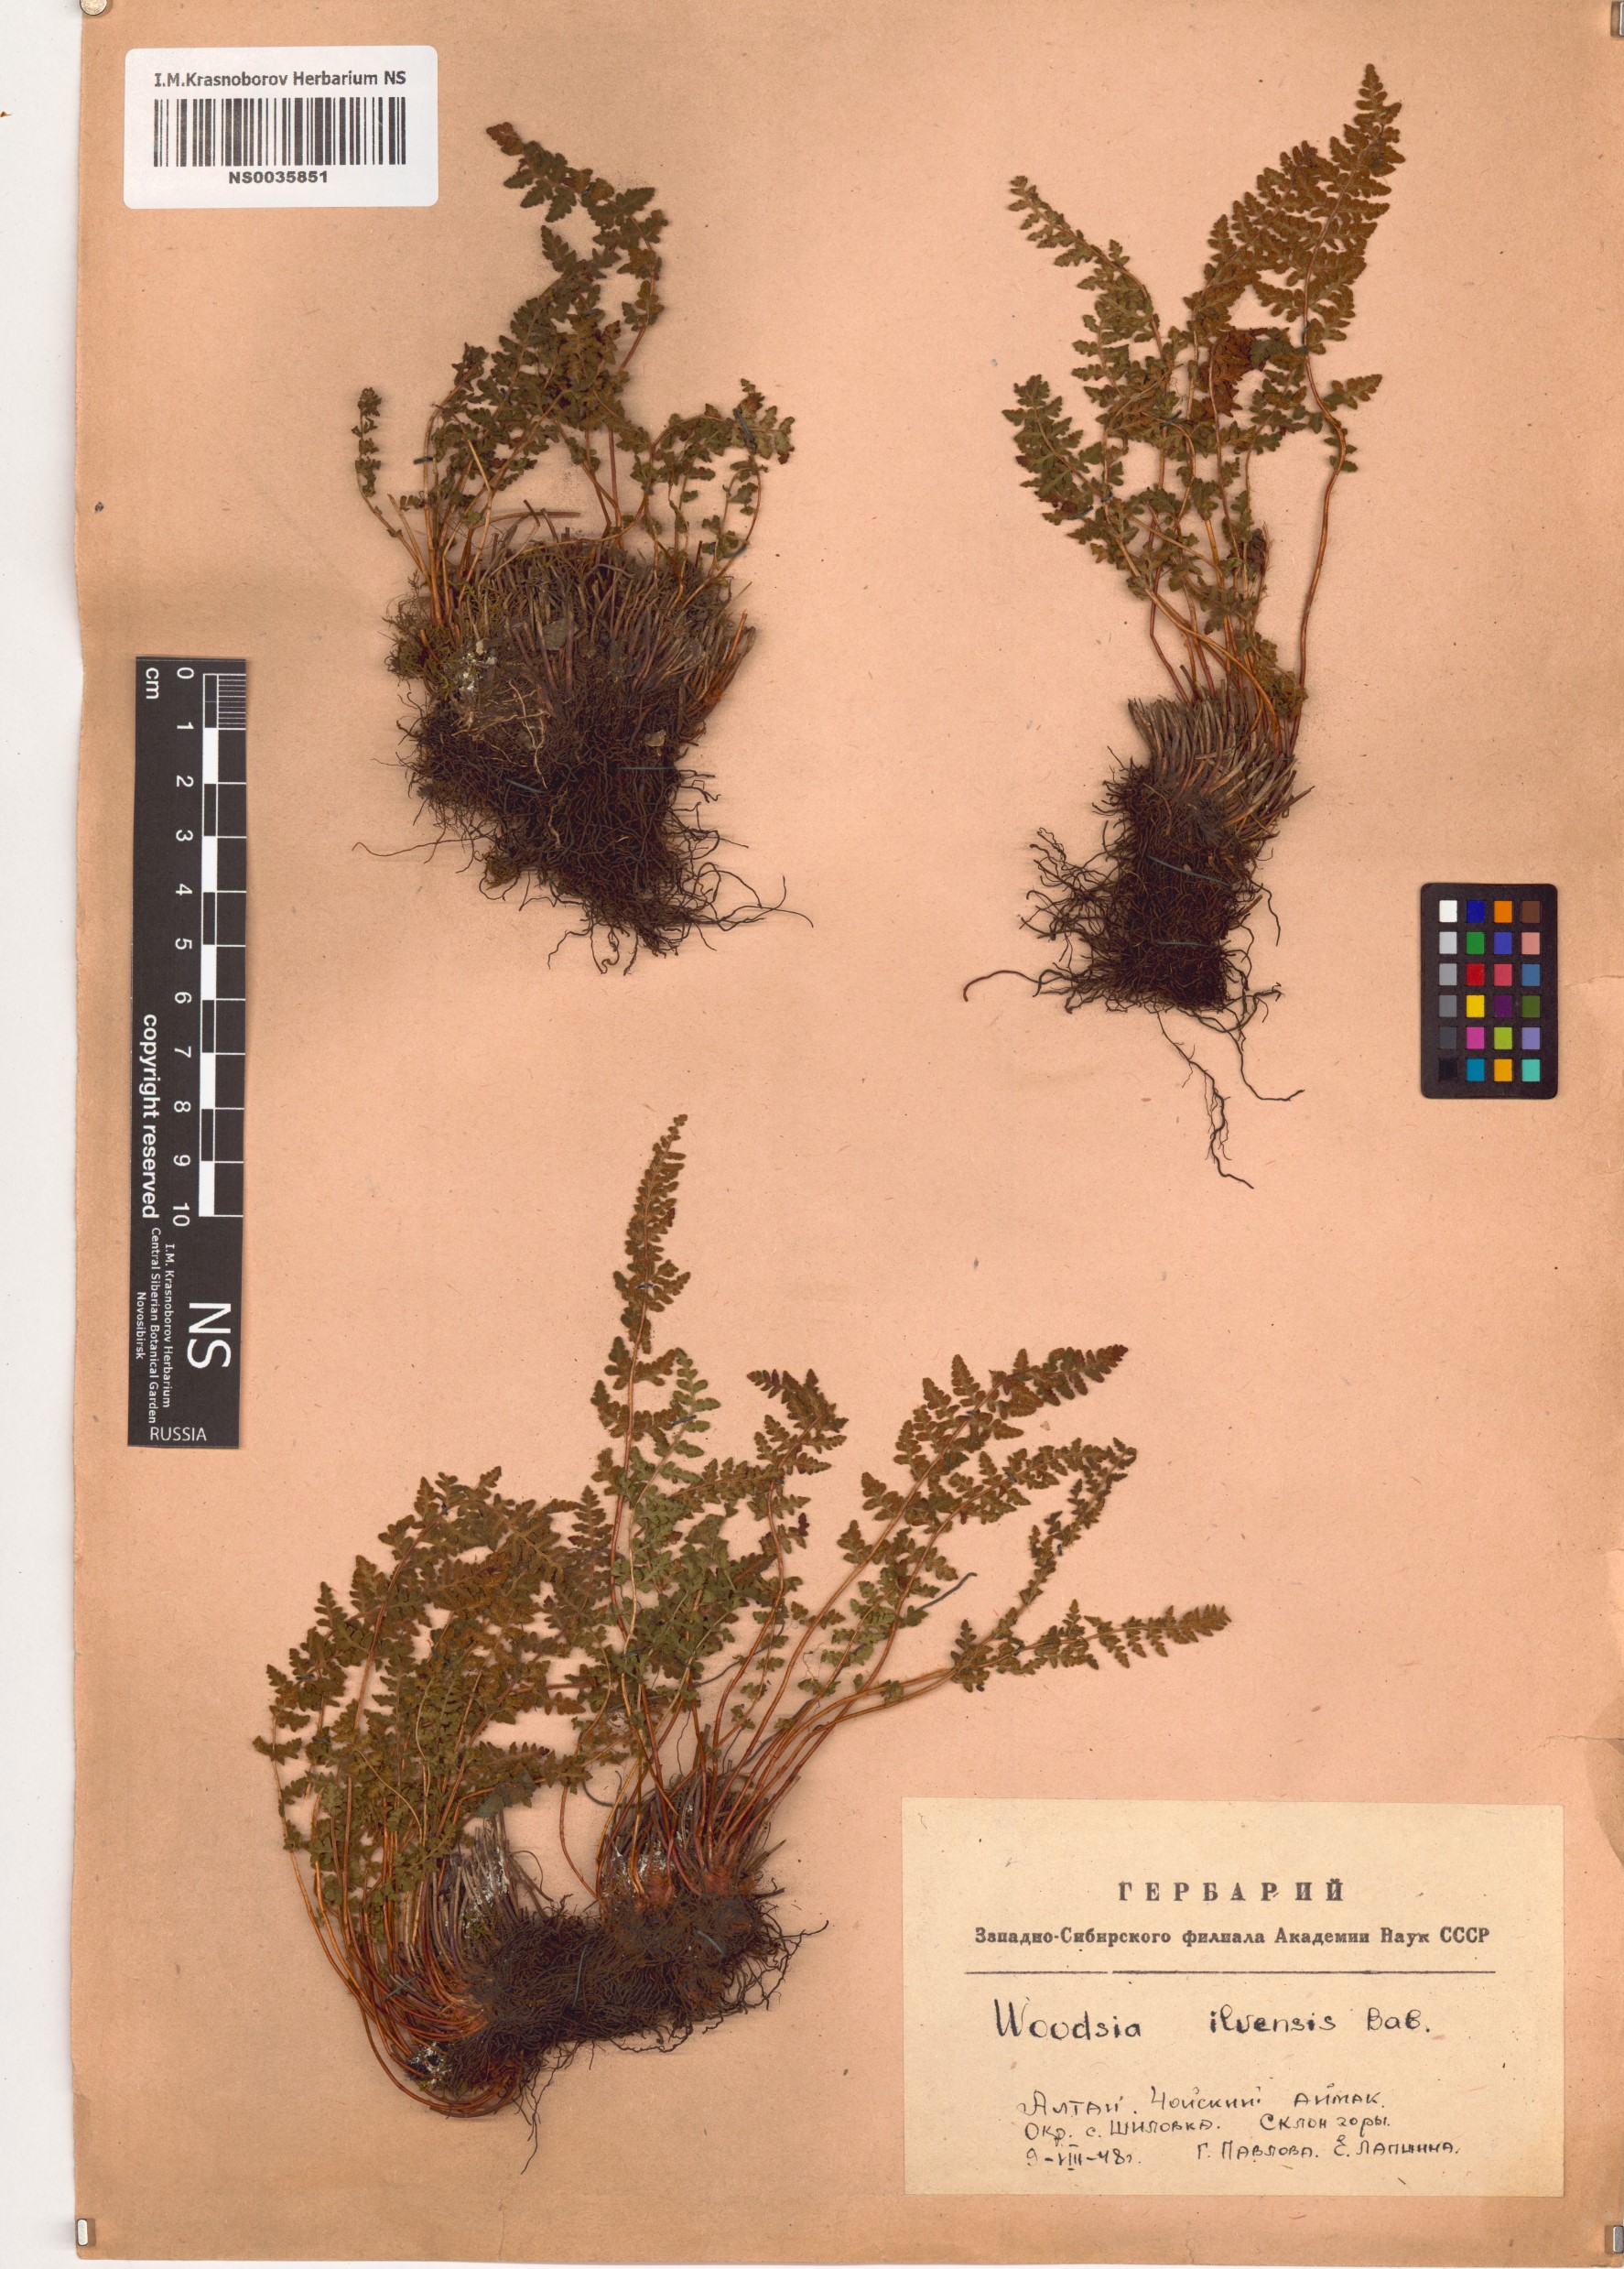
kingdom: Plantae
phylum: Tracheophyta
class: Polypodiopsida
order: Polypodiales
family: Woodsiaceae
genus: Woodsia
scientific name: Woodsia ilvensis
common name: Fragrant woodsia
